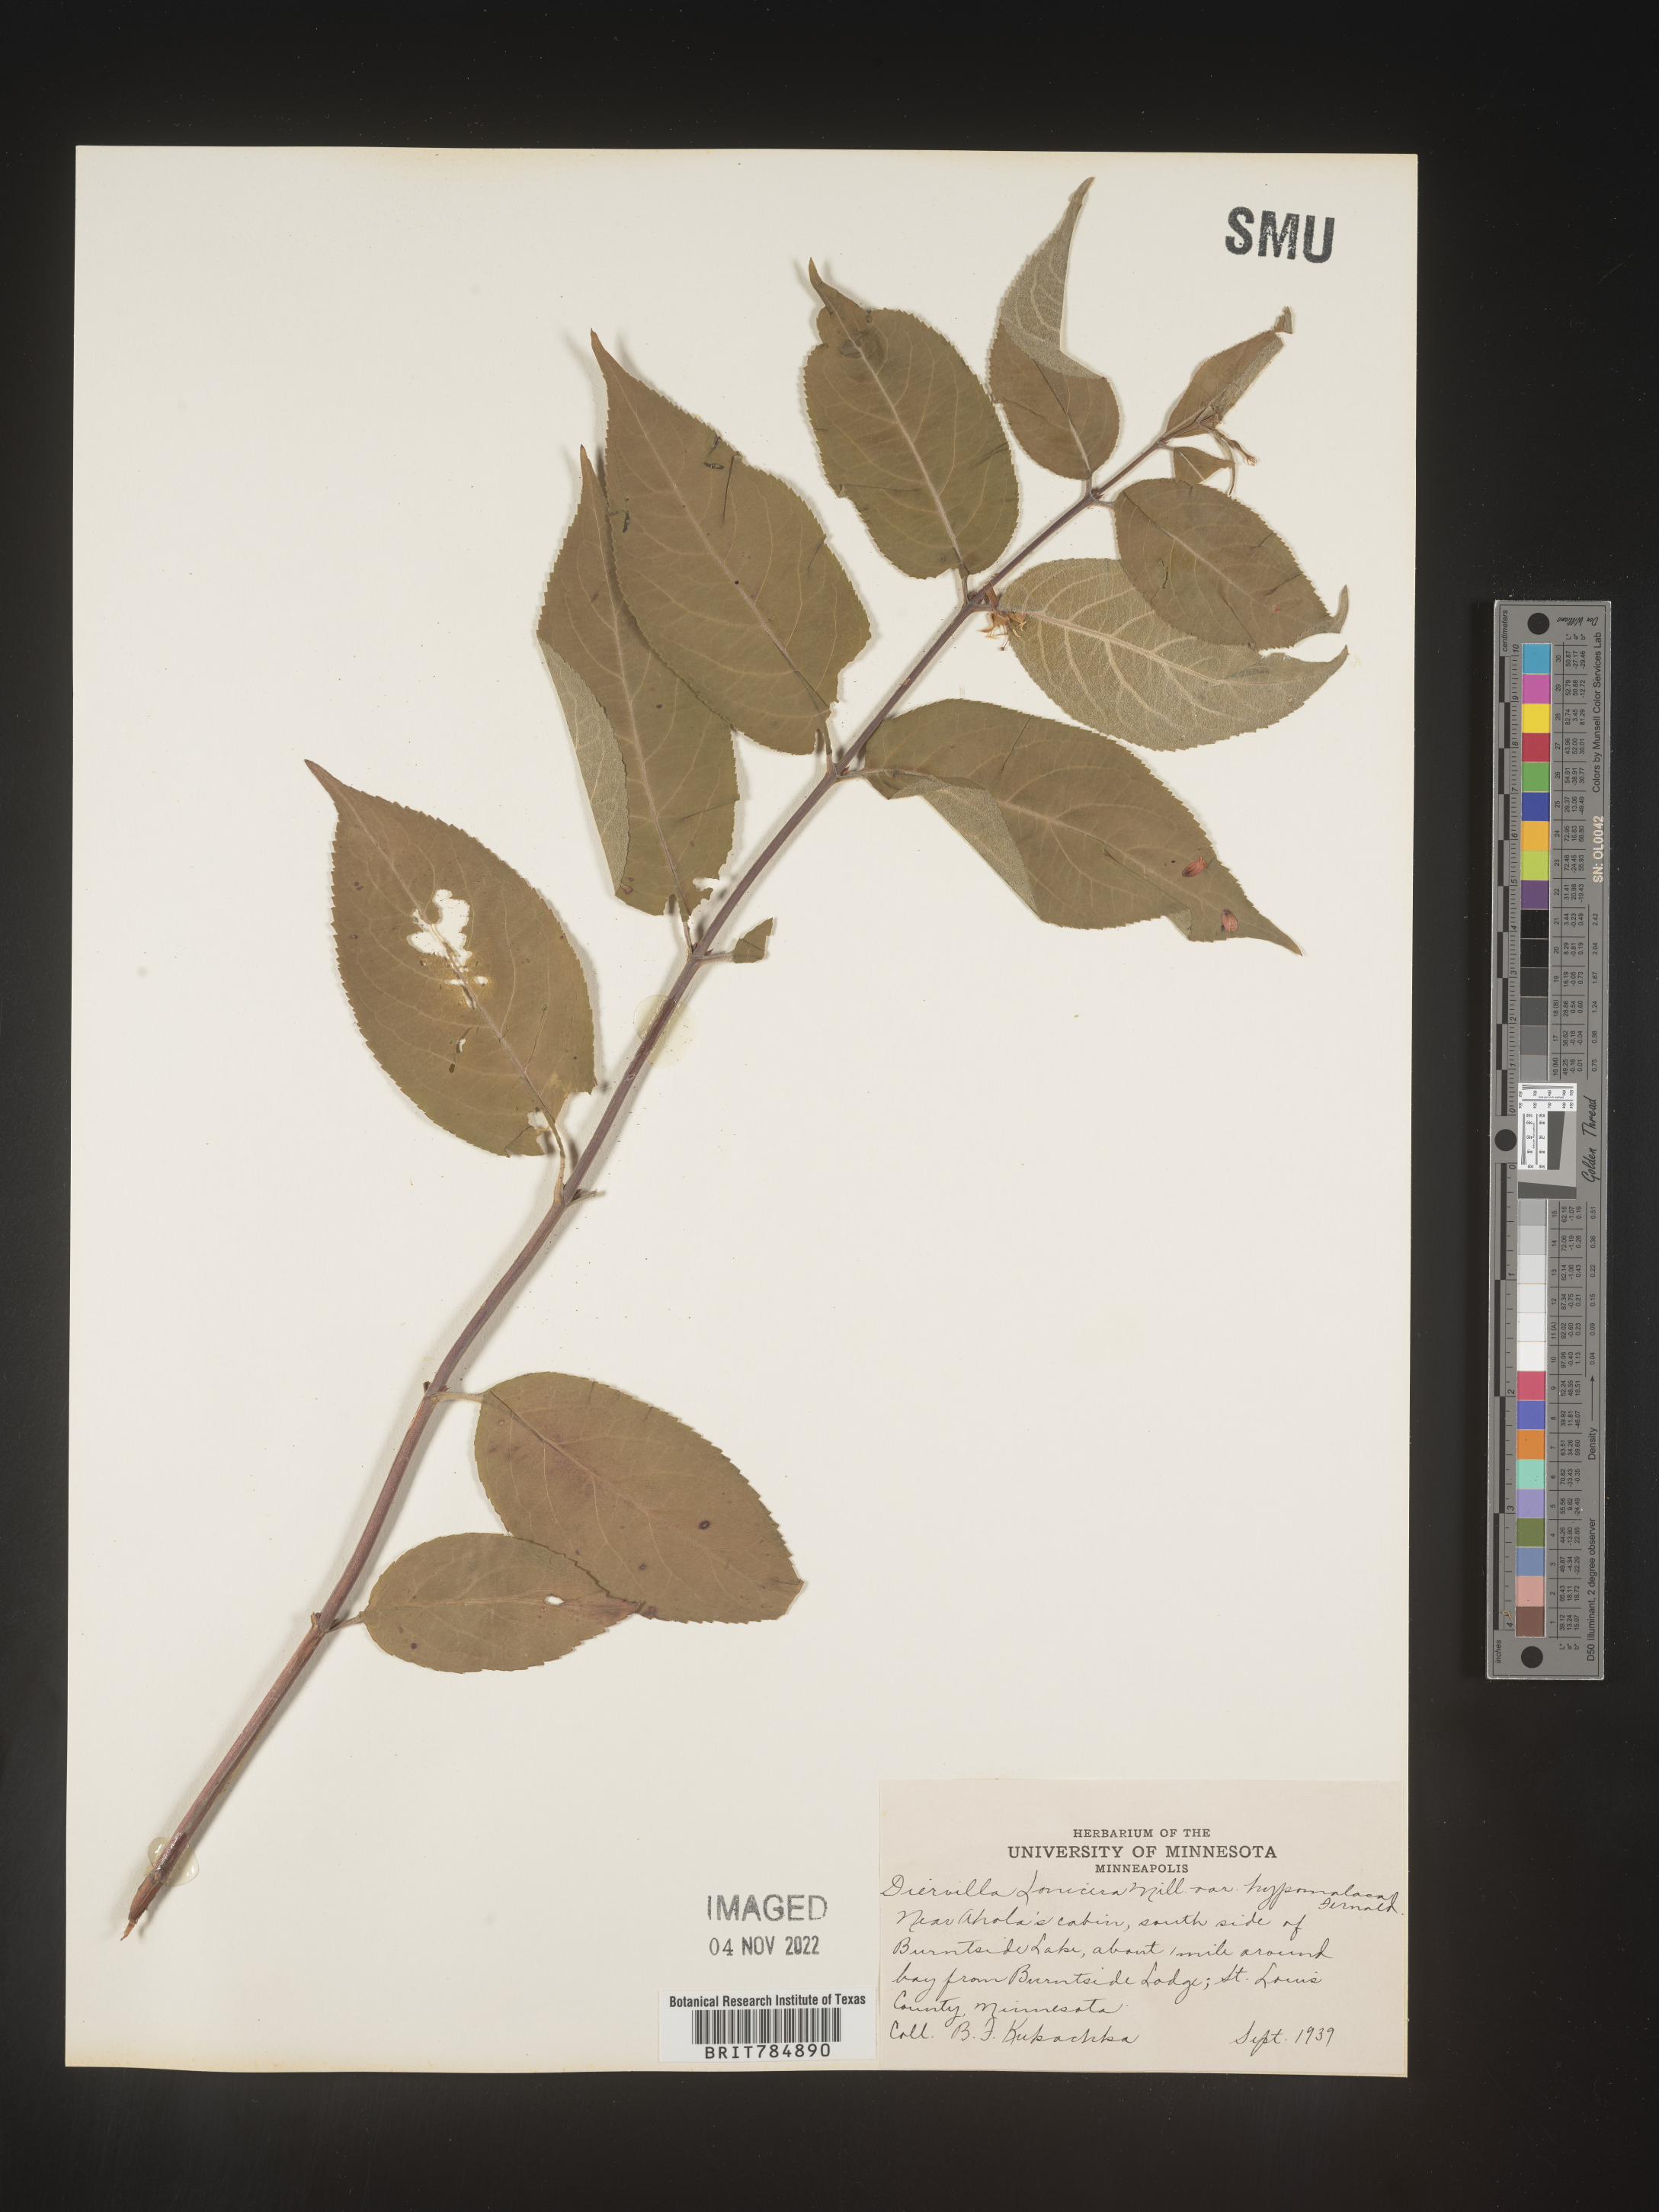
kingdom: Plantae
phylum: Tracheophyta
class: Magnoliopsida
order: Dipsacales
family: Caprifoliaceae
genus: Diervilla
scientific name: Diervilla lonicera
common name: Bush-honeysuckle
